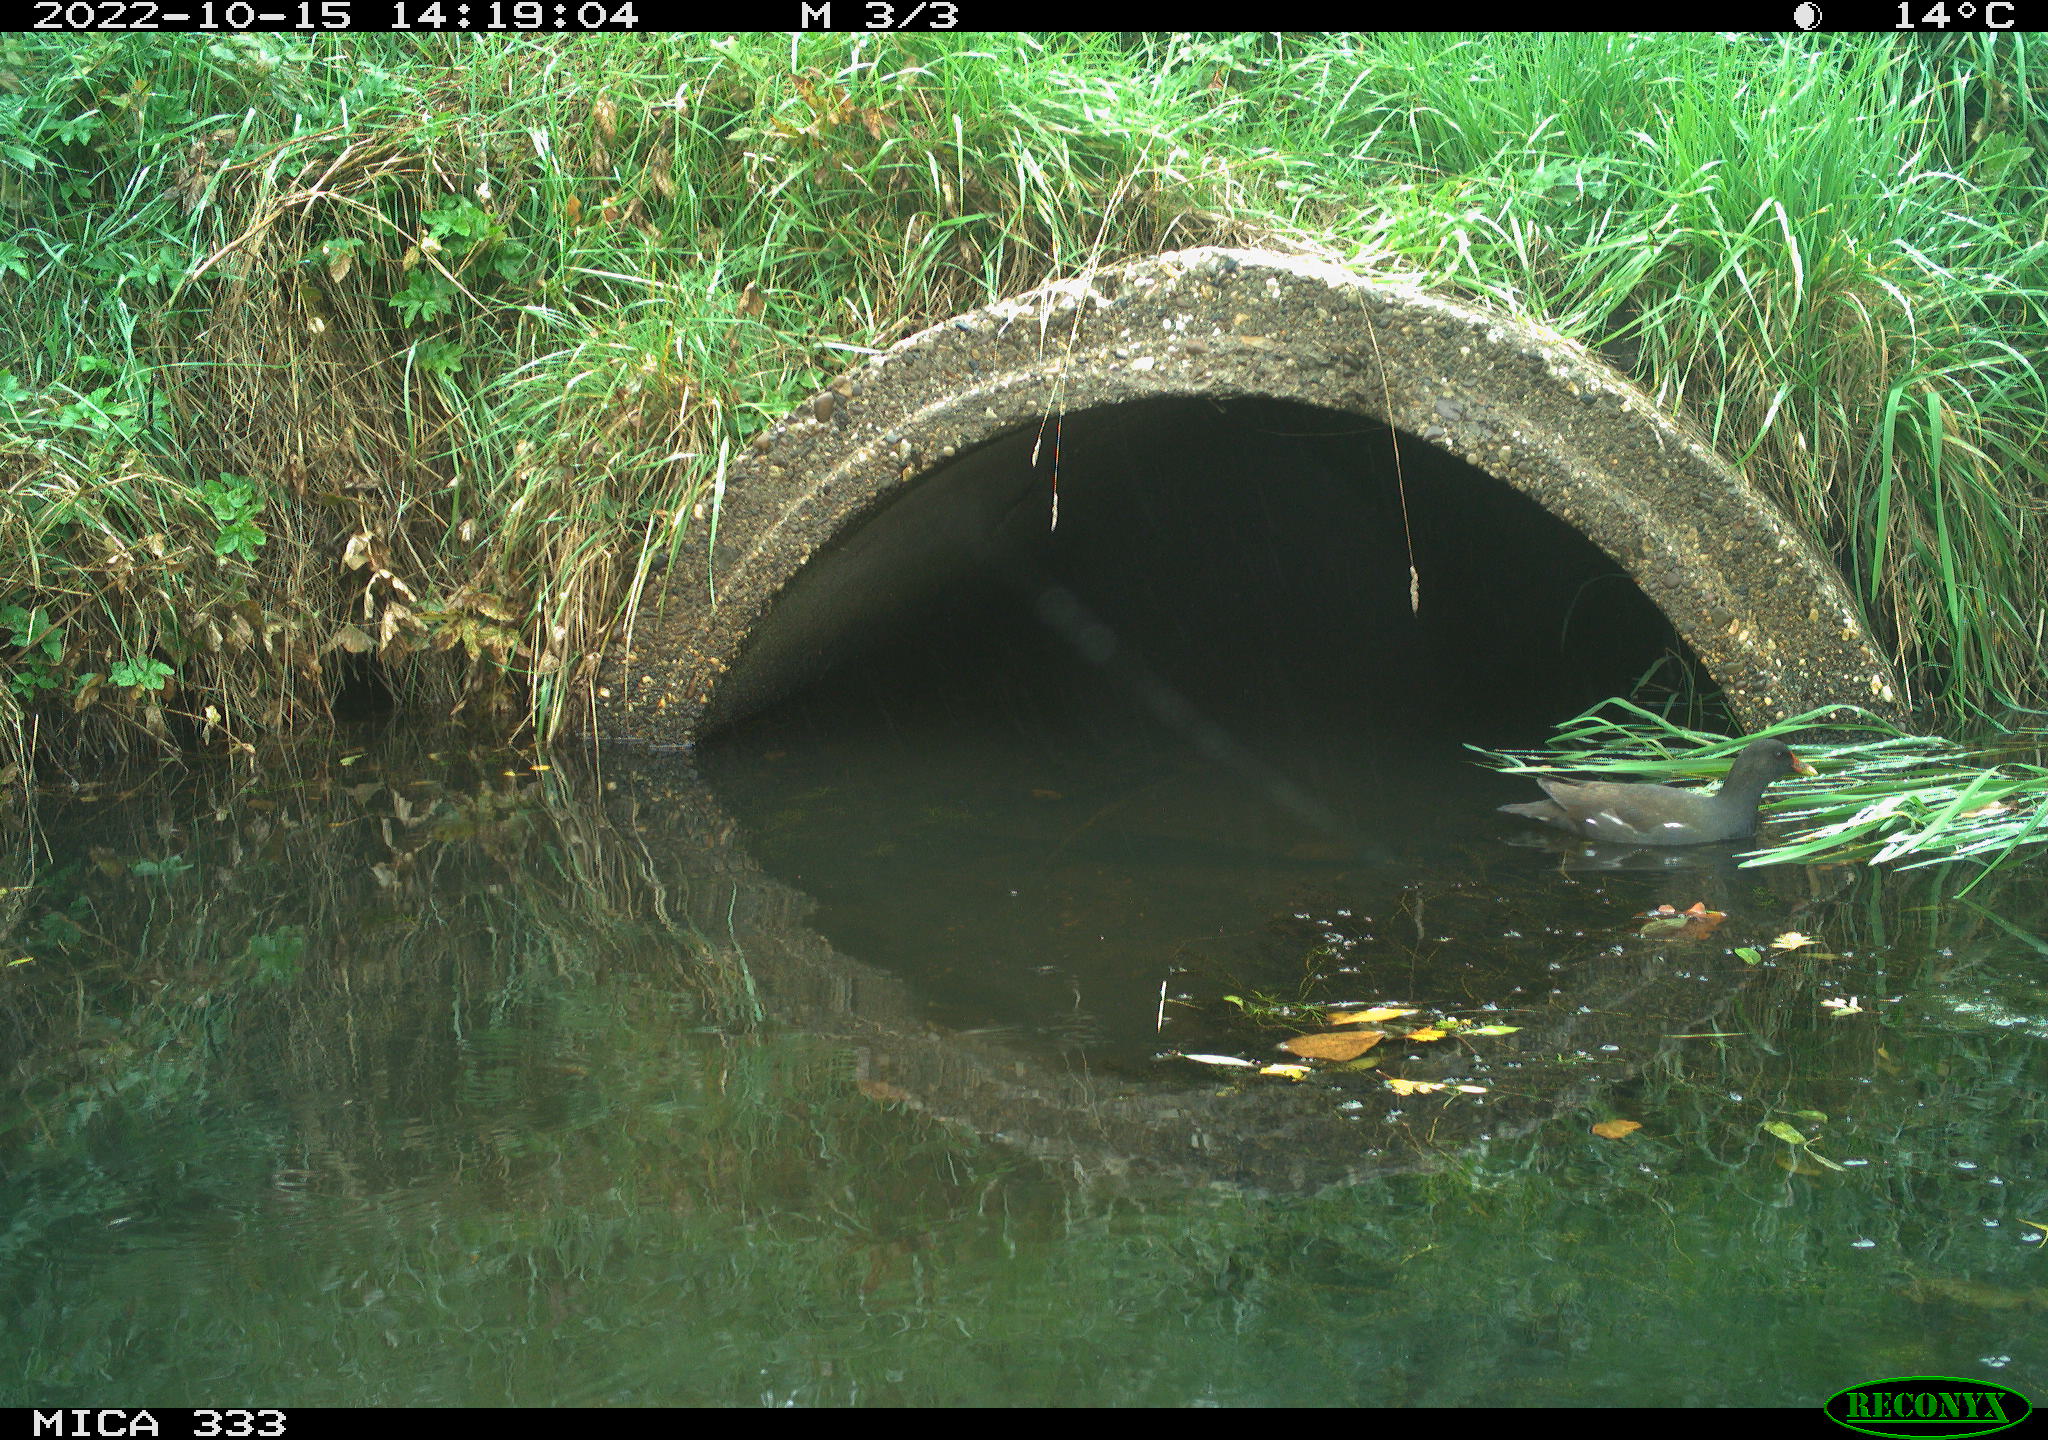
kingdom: Animalia
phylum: Chordata
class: Aves
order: Gruiformes
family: Rallidae
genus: Gallinula
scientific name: Gallinula chloropus
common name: Common moorhen
